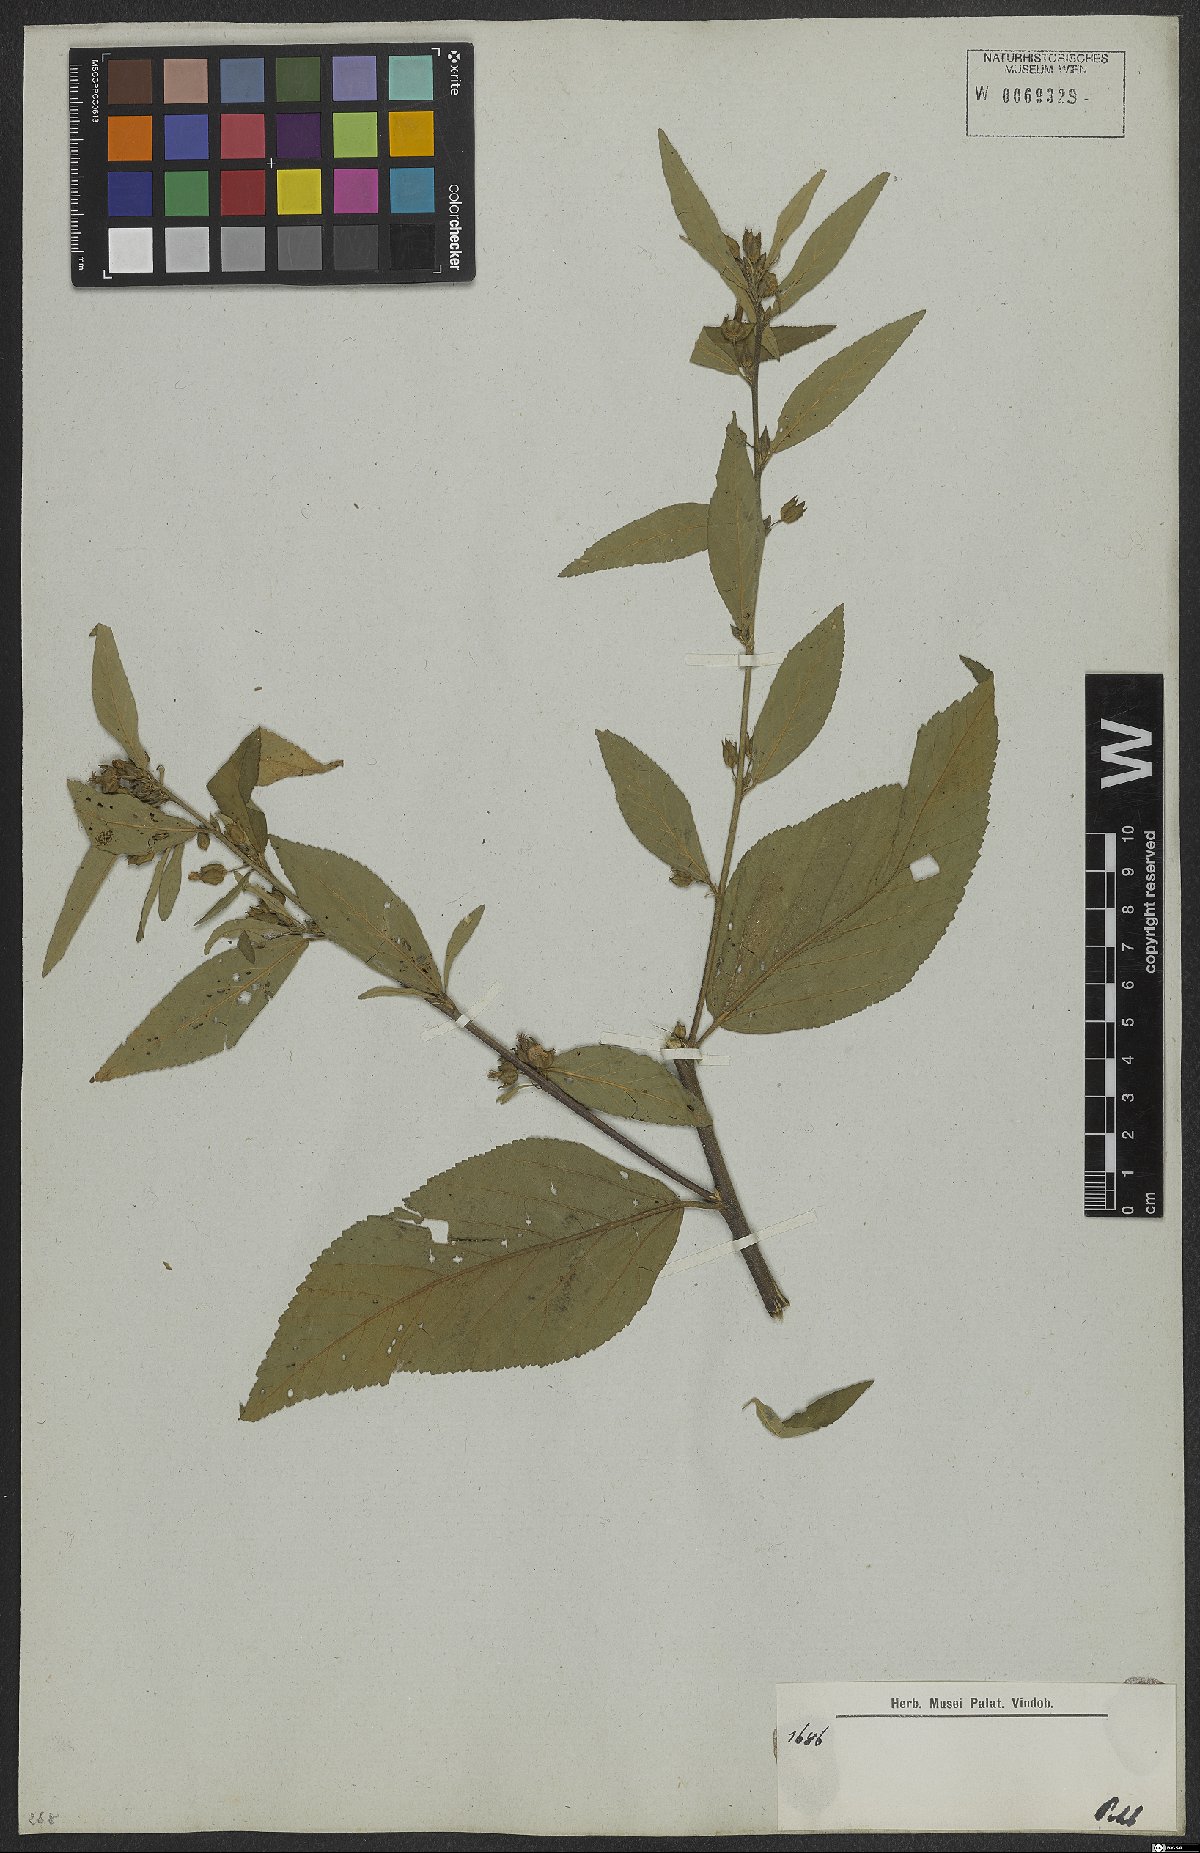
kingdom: Plantae
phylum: Tracheophyta
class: Magnoliopsida
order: Malvales
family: Malvaceae
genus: Sida
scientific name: Sida rhombifolia
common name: Queensland-hemp
